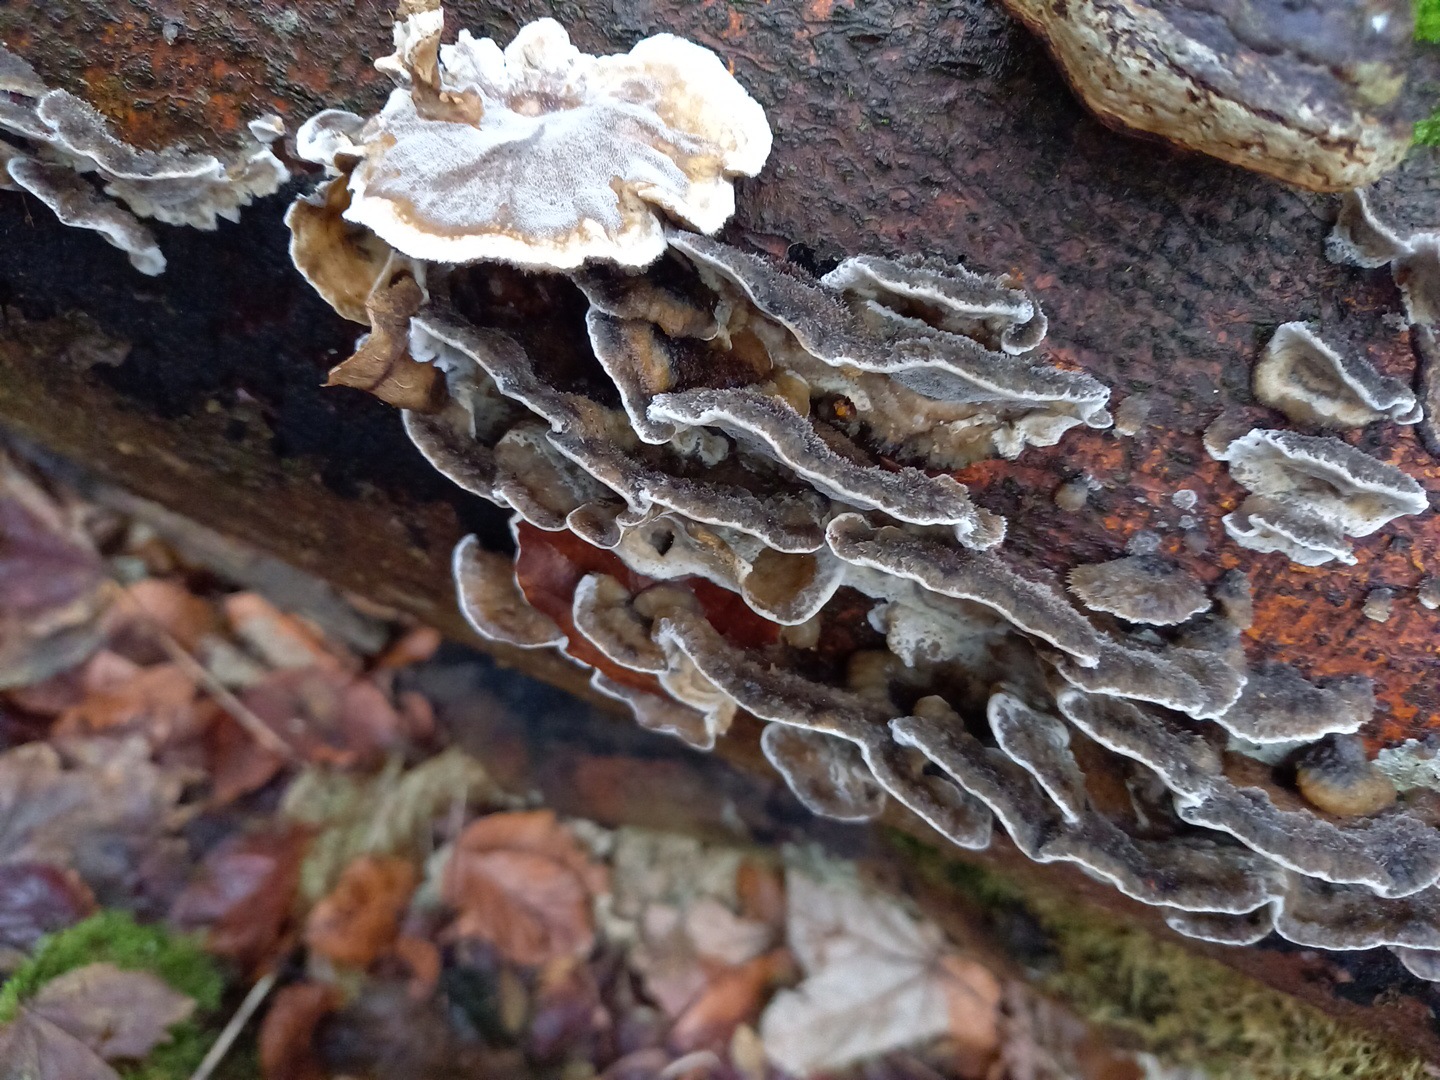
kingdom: Fungi
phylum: Basidiomycota
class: Agaricomycetes
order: Polyporales
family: Phanerochaetaceae
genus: Bjerkandera
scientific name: Bjerkandera adusta
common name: sveden sodporesvamp
